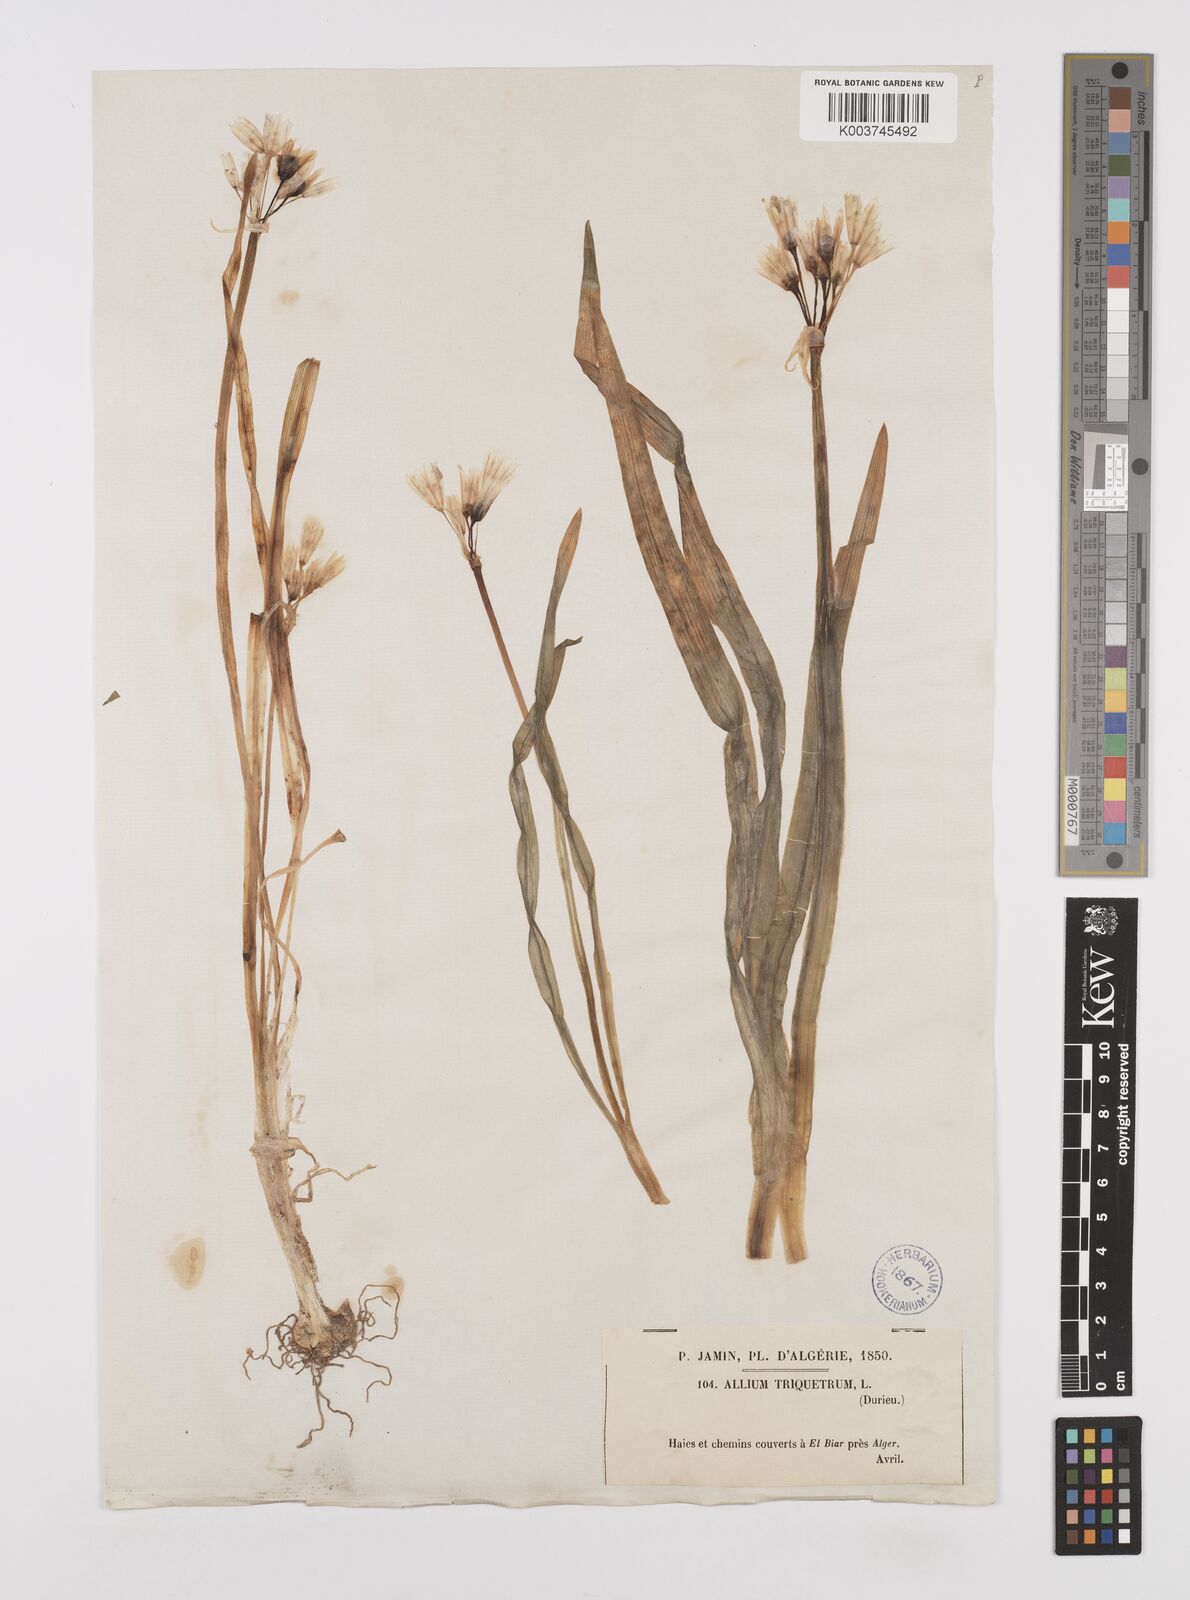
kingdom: Plantae
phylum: Tracheophyta
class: Liliopsida
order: Asparagales
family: Amaryllidaceae
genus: Allium
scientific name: Allium triquetrum
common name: Three-cornered garlic
